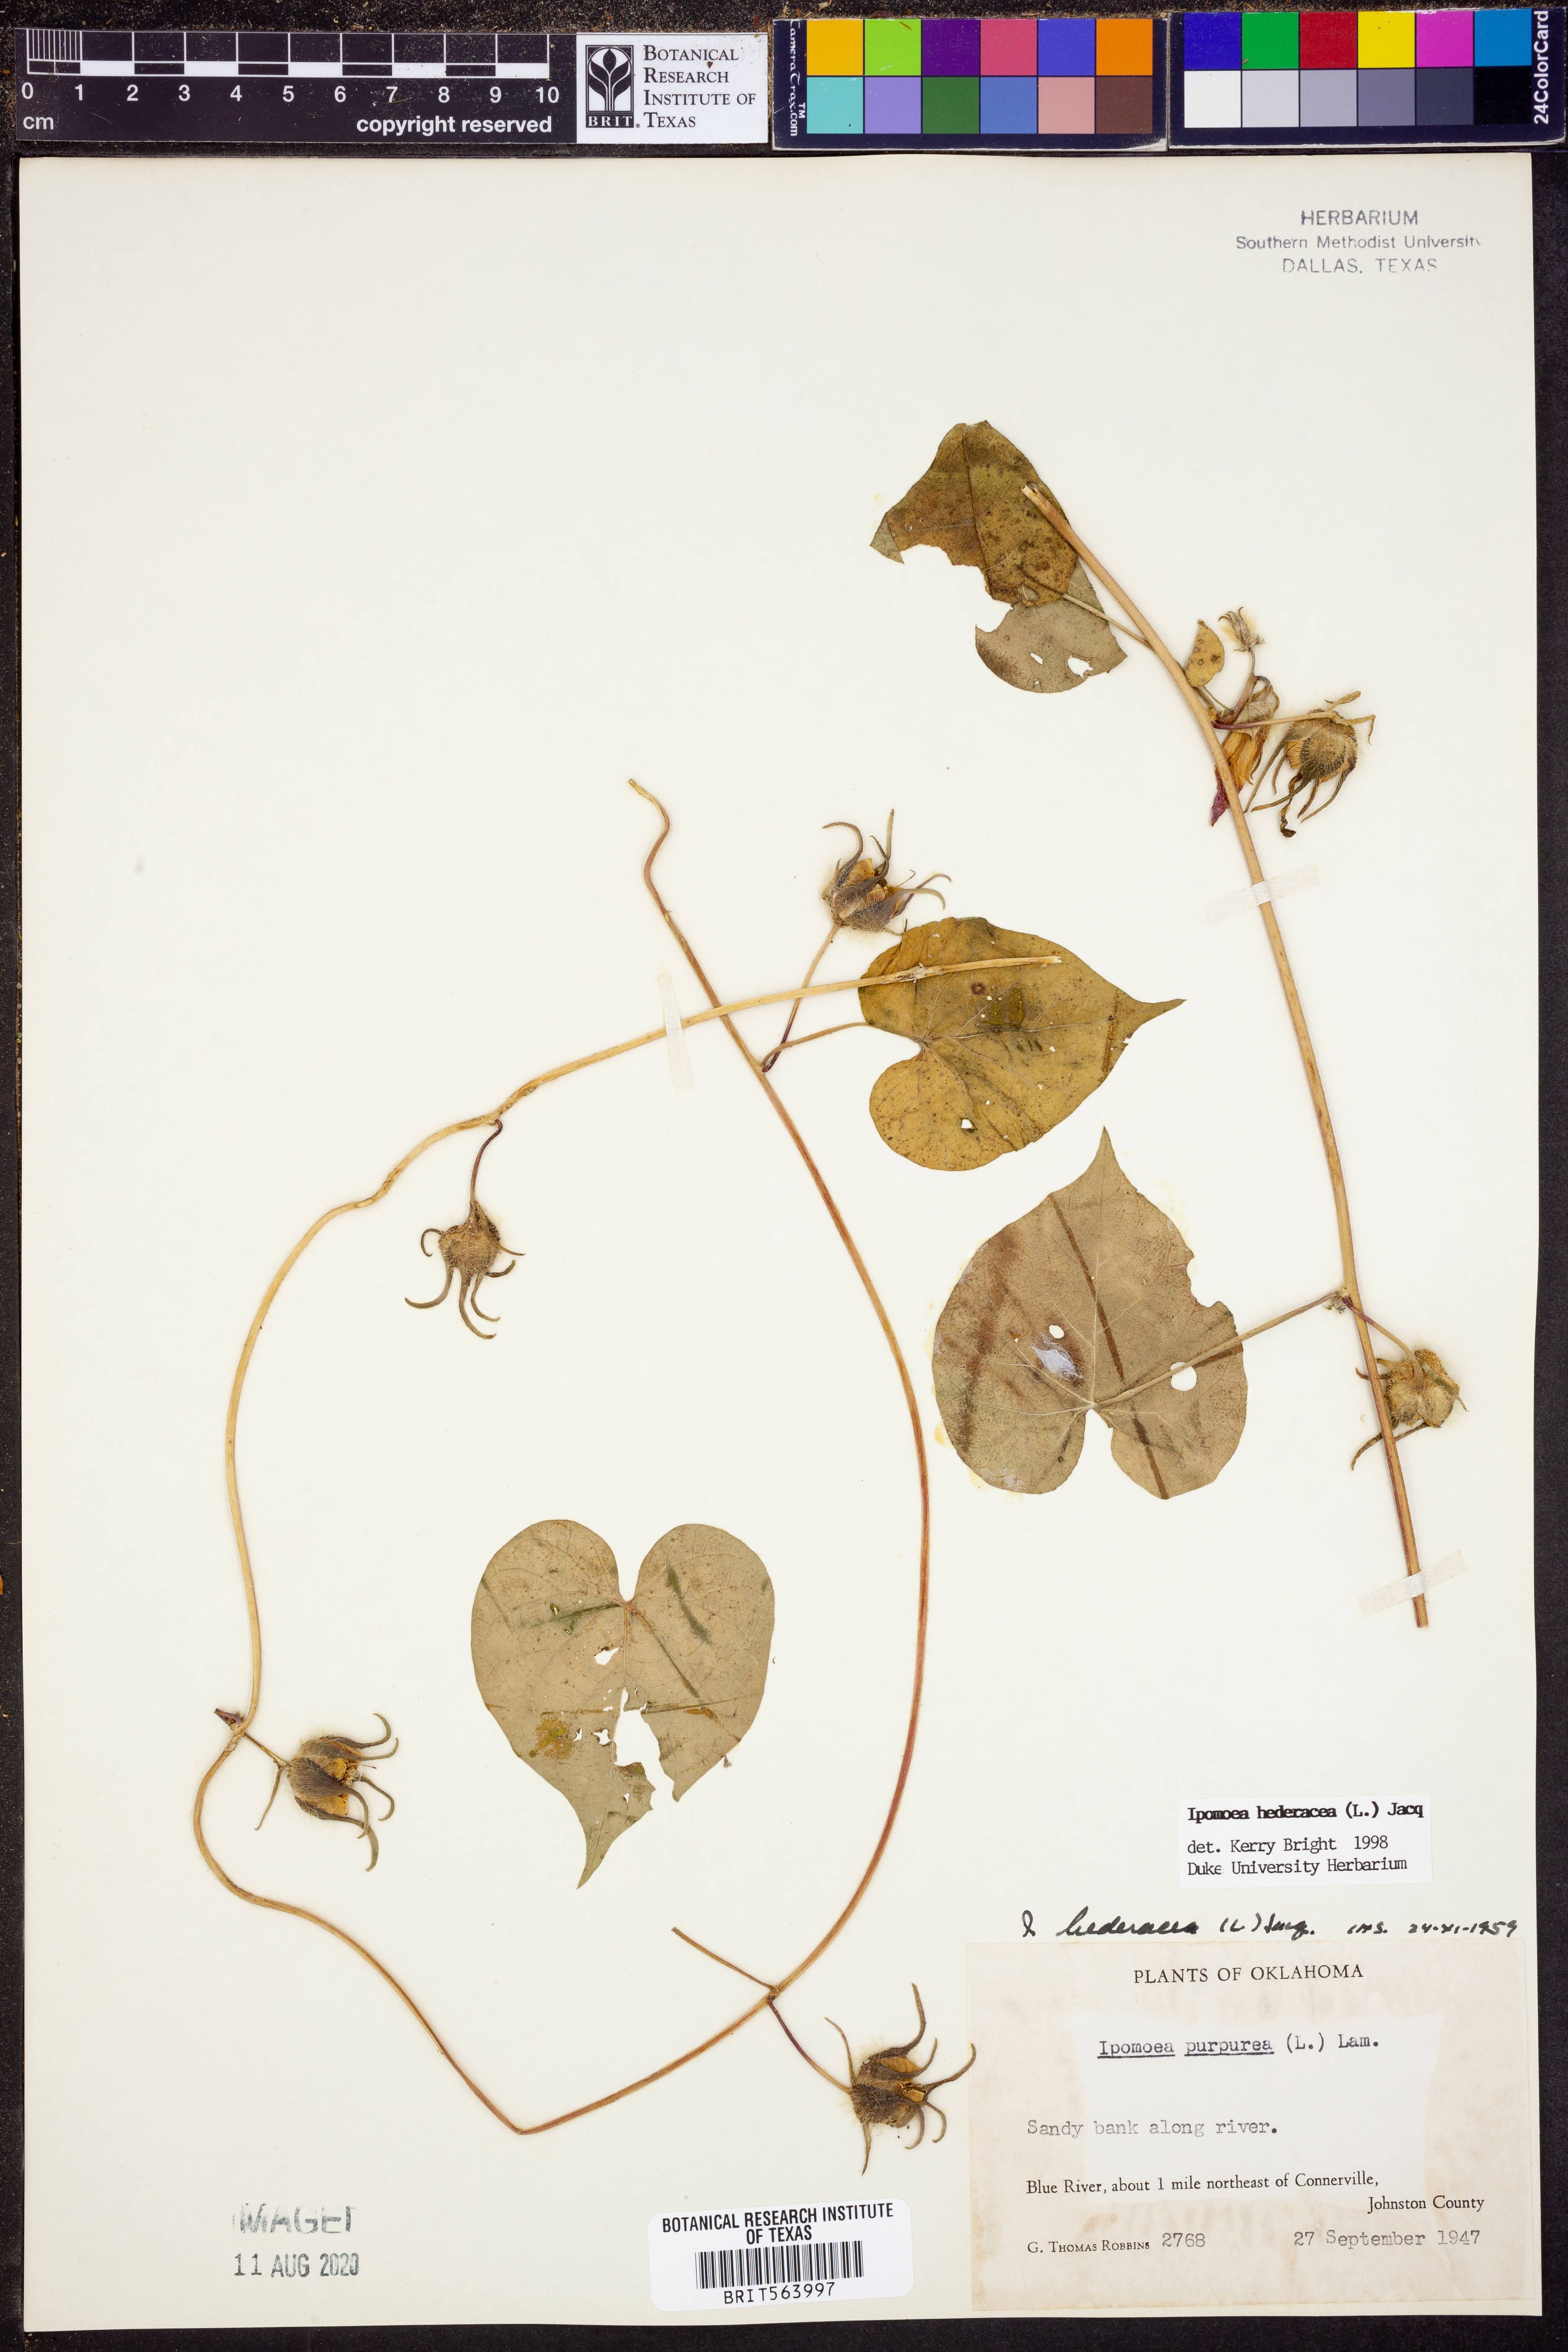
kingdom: Plantae
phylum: Tracheophyta
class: Magnoliopsida
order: Solanales
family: Convolvulaceae
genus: Ipomoea
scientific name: Ipomoea hederacea
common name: Ivy-leaved morning-glory
